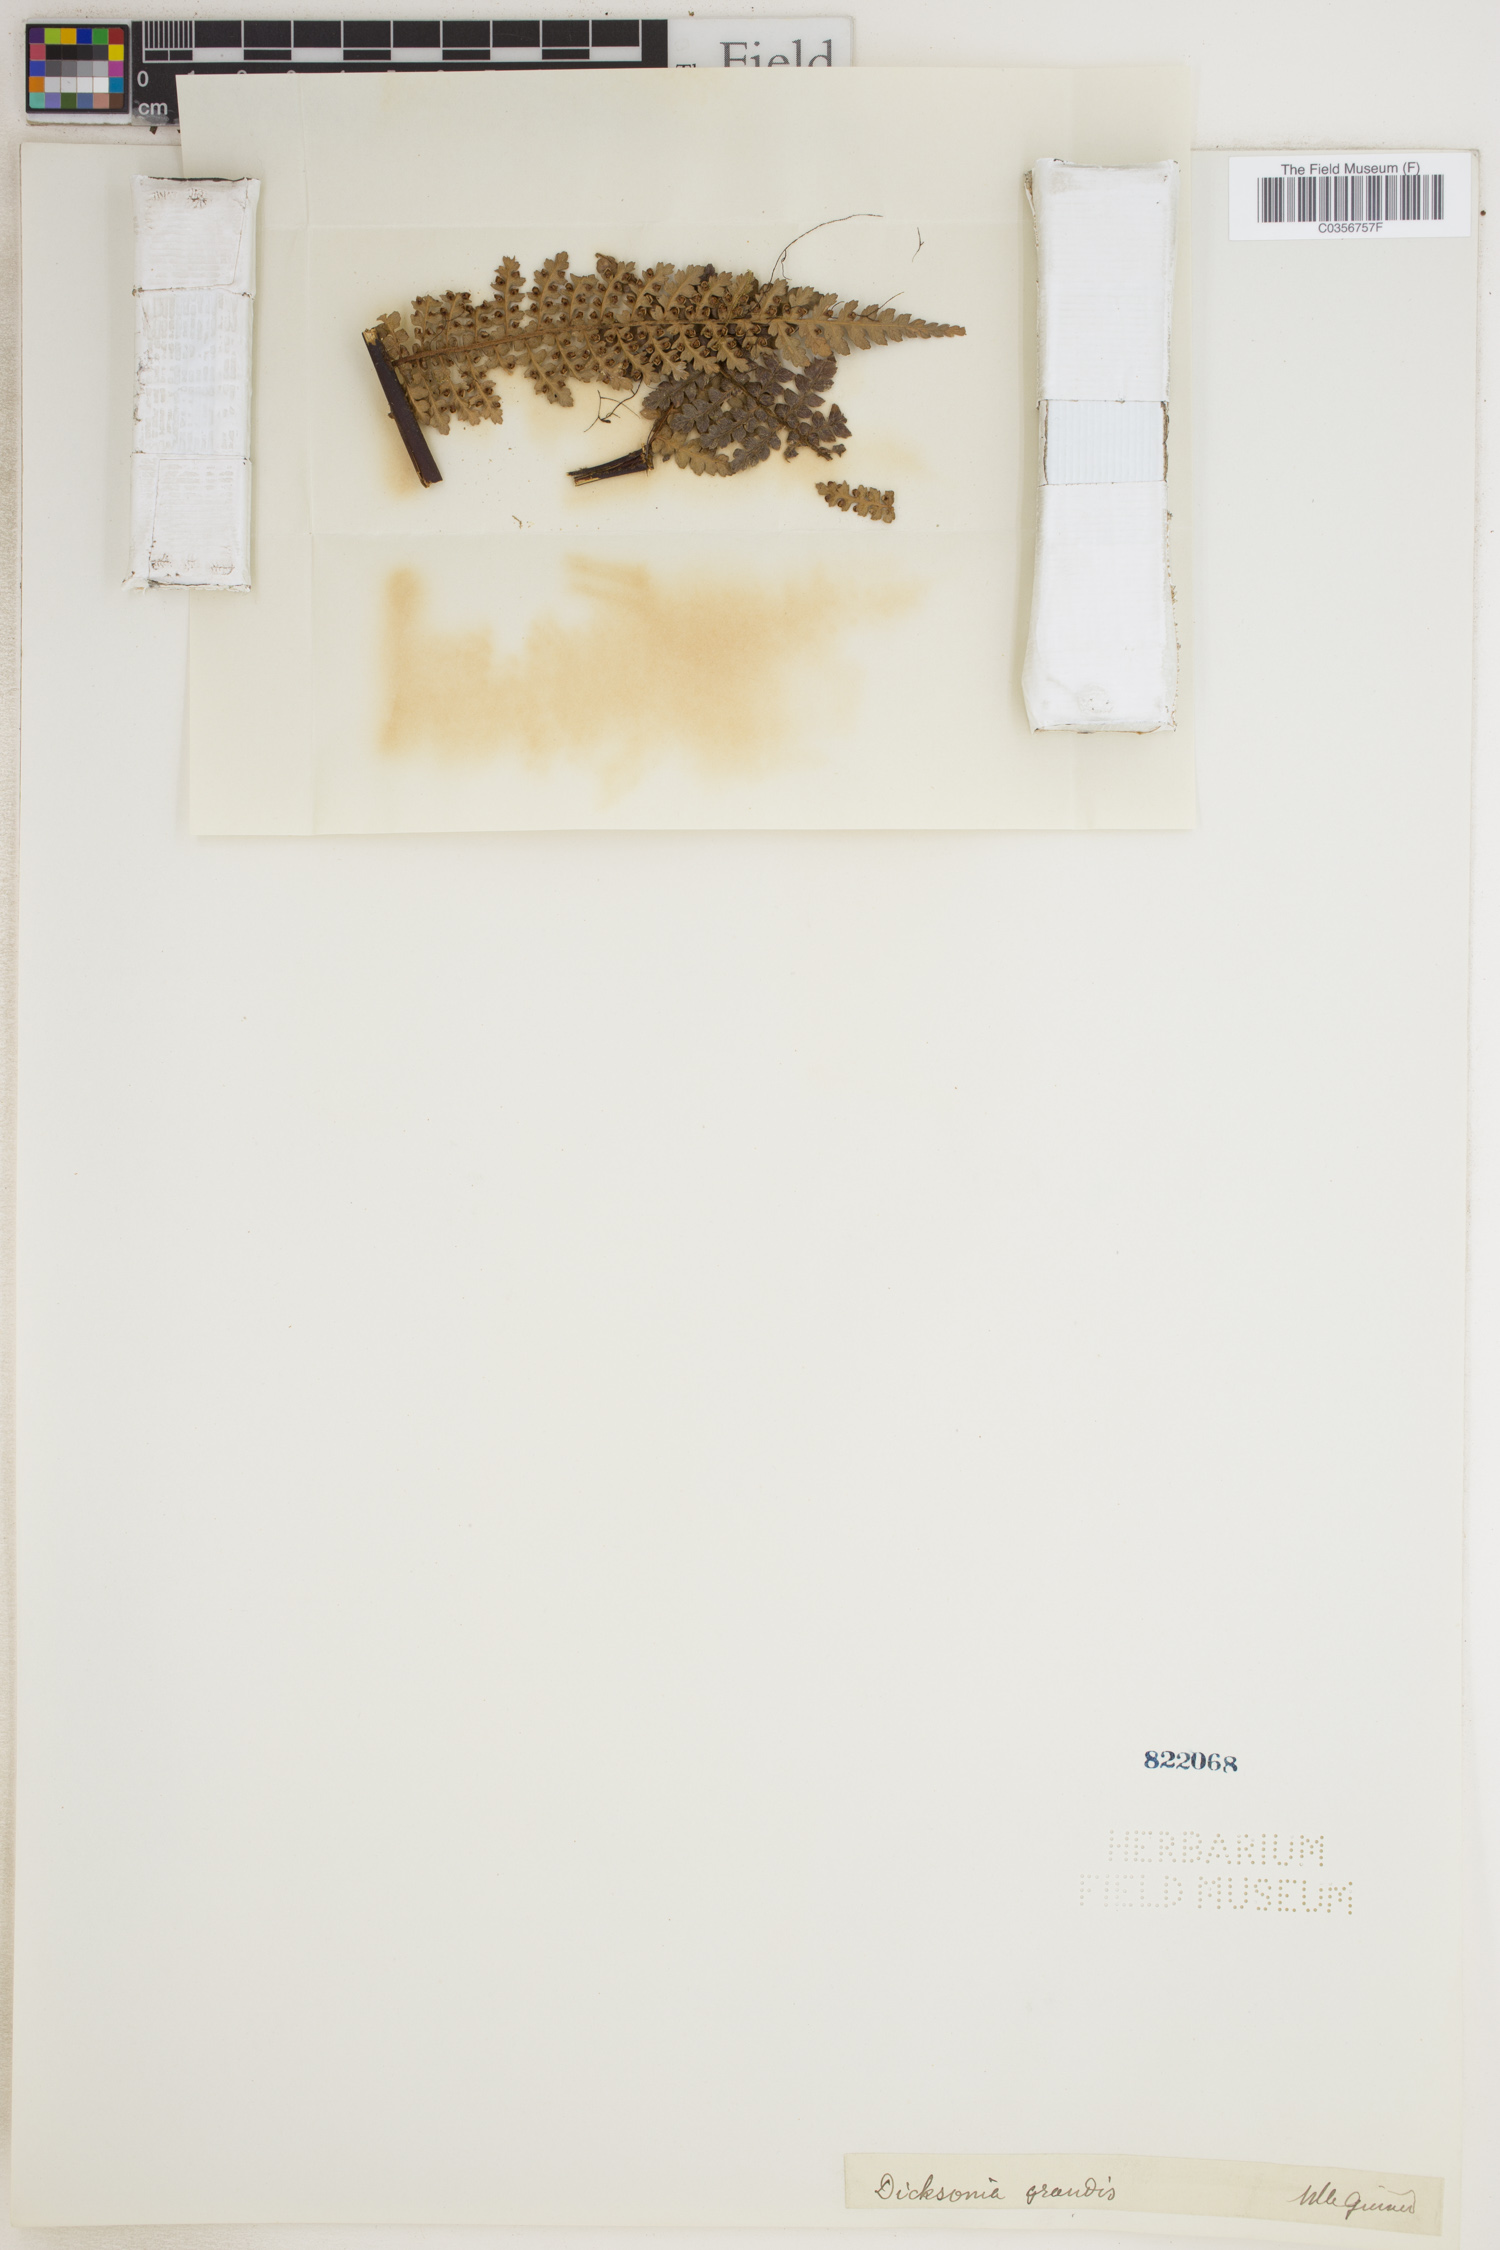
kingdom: Plantae
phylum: Tracheophyta
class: Polypodiopsida
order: Cyatheales
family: Dicksoniaceae
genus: Dicksonia
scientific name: Dicksonia grandis
